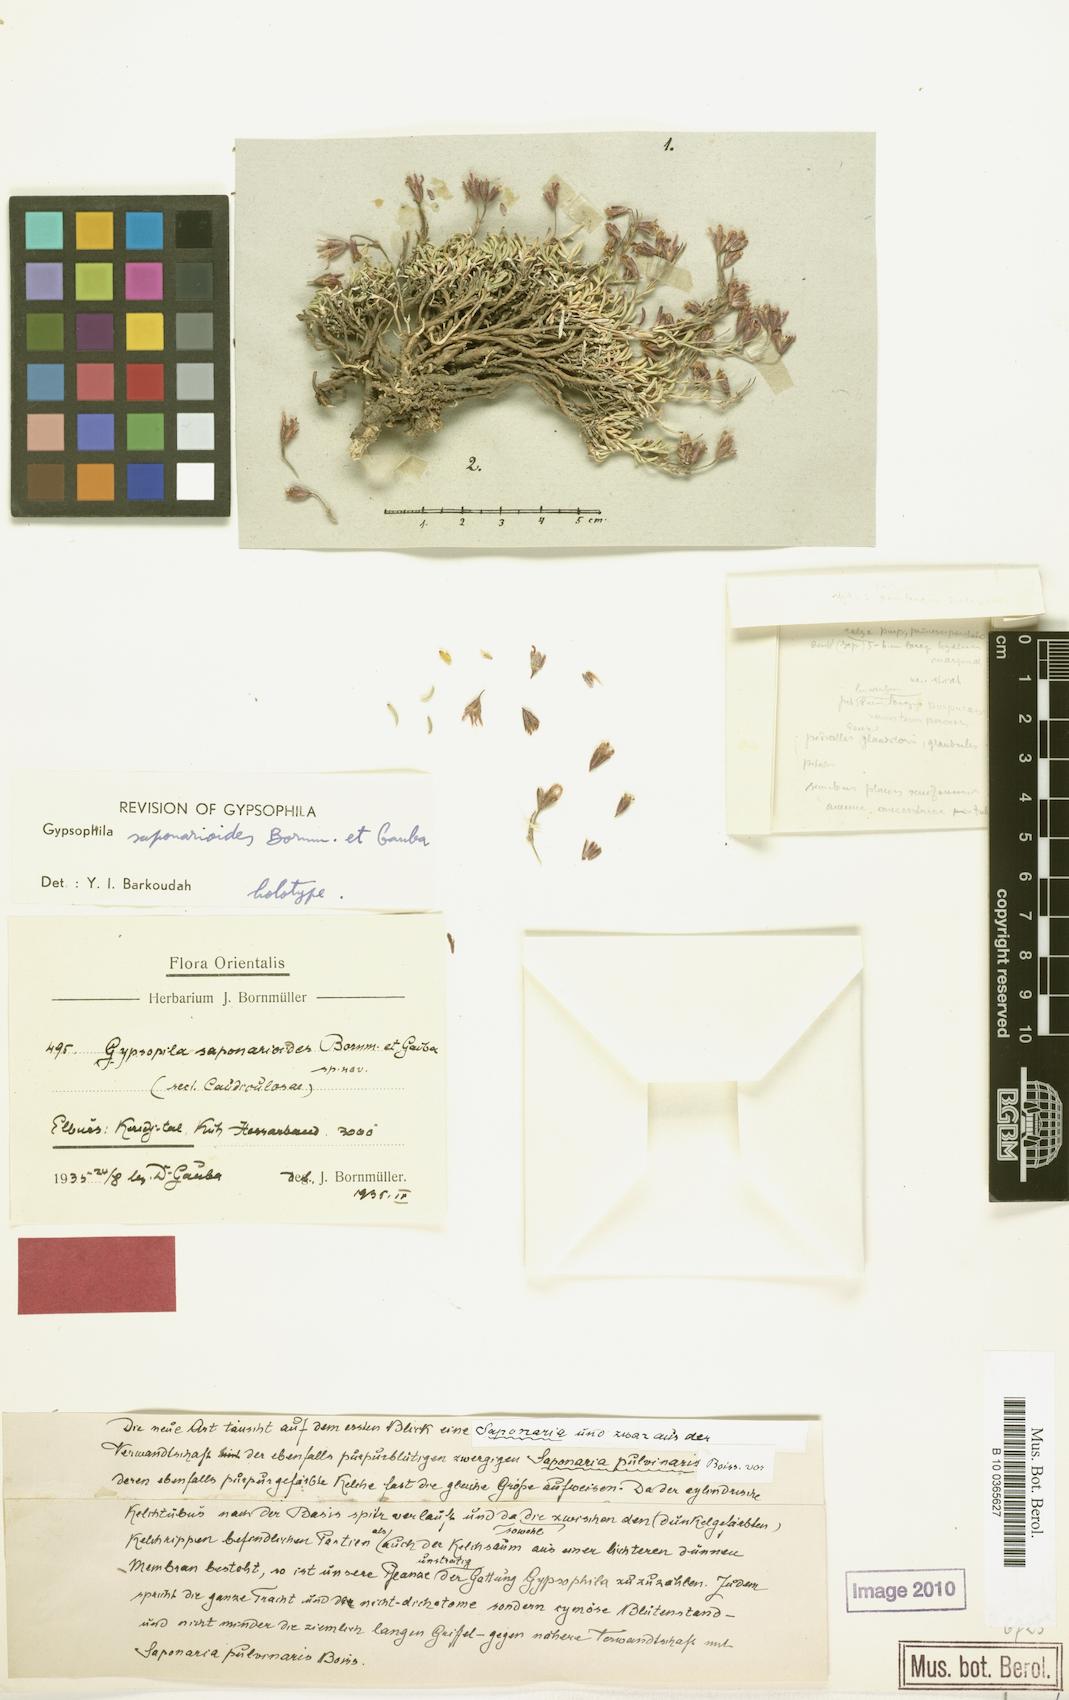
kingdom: Plantae
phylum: Tracheophyta
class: Magnoliopsida
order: Caryophyllales
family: Caryophyllaceae
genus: Gypsophila
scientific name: Gypsophila saponarioides
